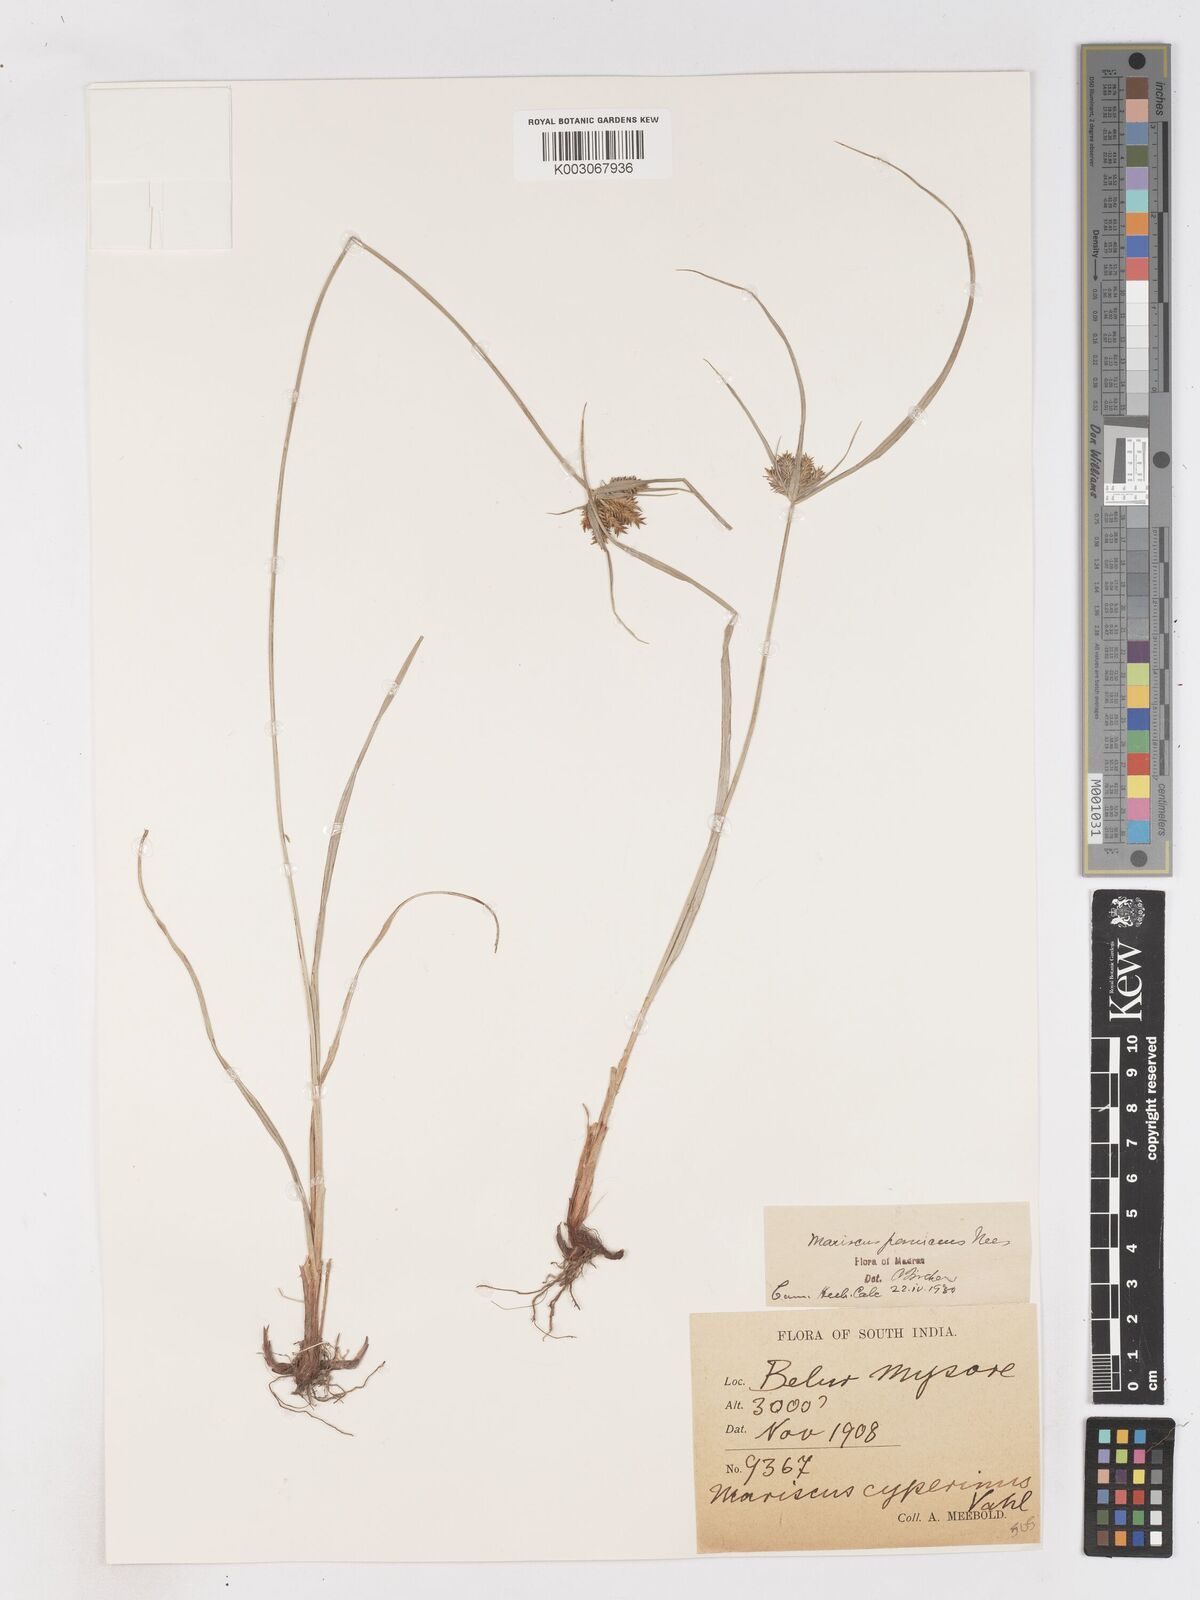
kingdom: Plantae
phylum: Tracheophyta
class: Liliopsida
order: Poales
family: Cyperaceae
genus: Cyperus
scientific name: Cyperus paniceus
